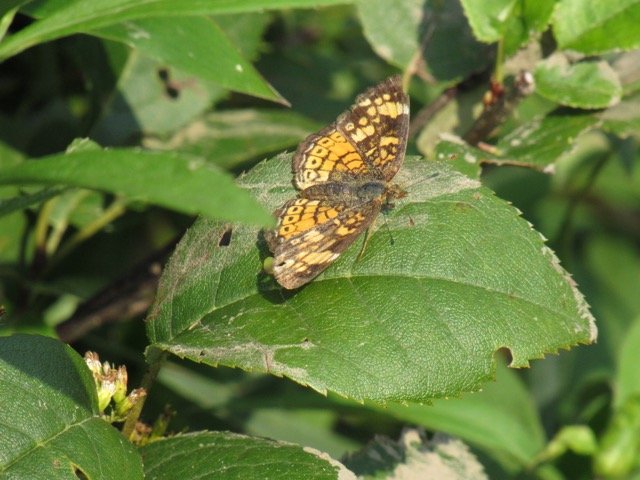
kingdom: Animalia
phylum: Arthropoda
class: Insecta
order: Lepidoptera
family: Nymphalidae
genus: Phyciodes
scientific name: Phyciodes tharos
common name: Pearl Crescent
